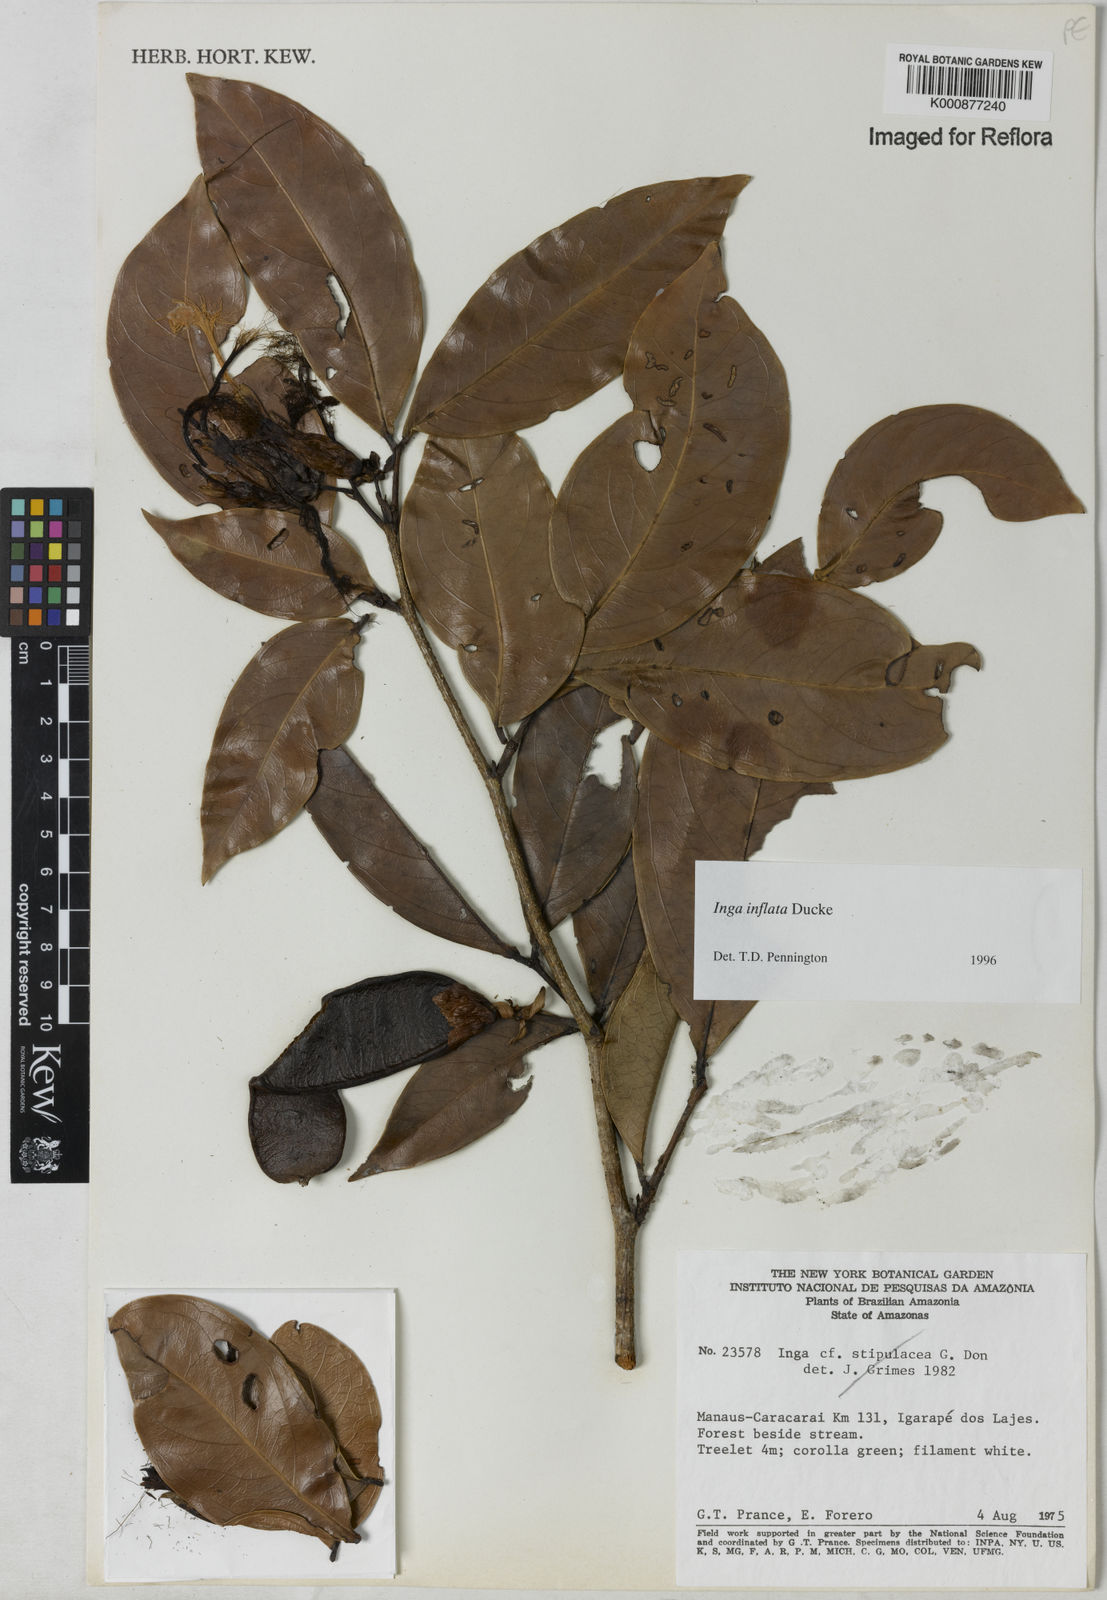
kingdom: Plantae
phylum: Tracheophyta
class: Magnoliopsida
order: Fabales
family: Fabaceae
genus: Inga
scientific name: Inga inflata
